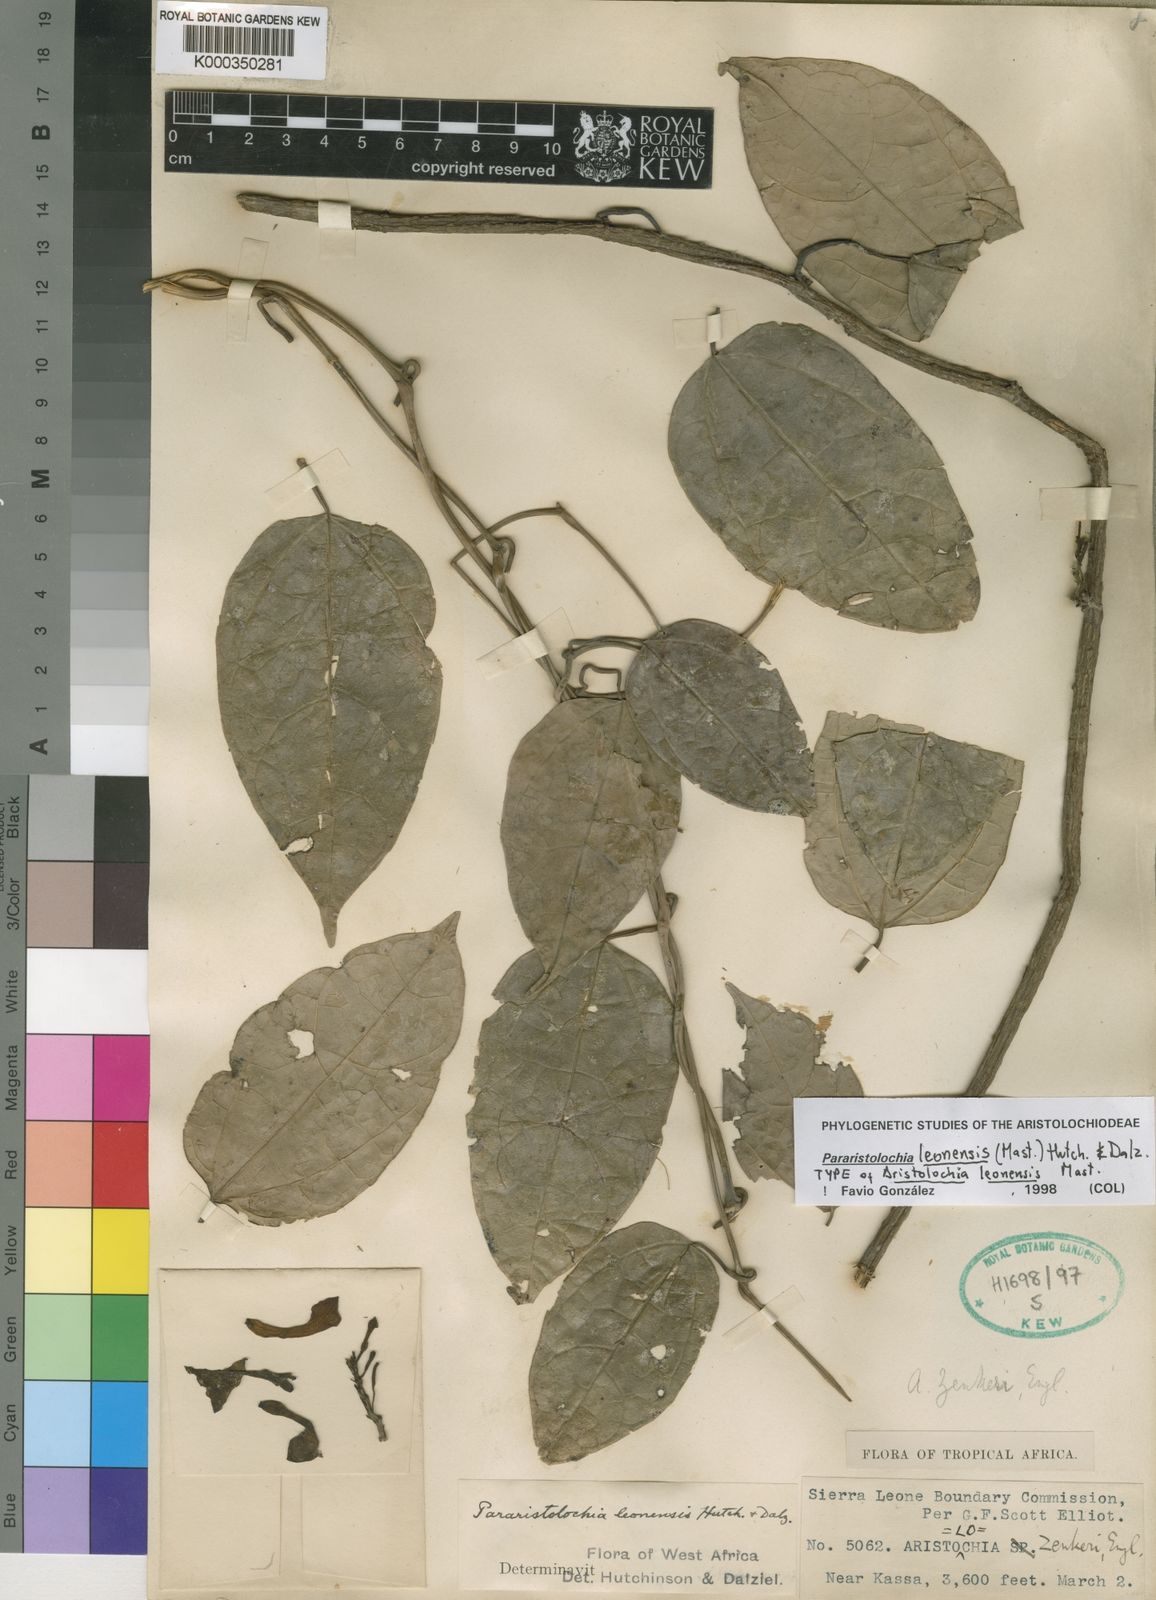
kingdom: Plantae
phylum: Tracheophyta
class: Magnoliopsida
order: Piperales
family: Aristolochiaceae
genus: Aristolochia
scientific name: Aristolochia leonensis
